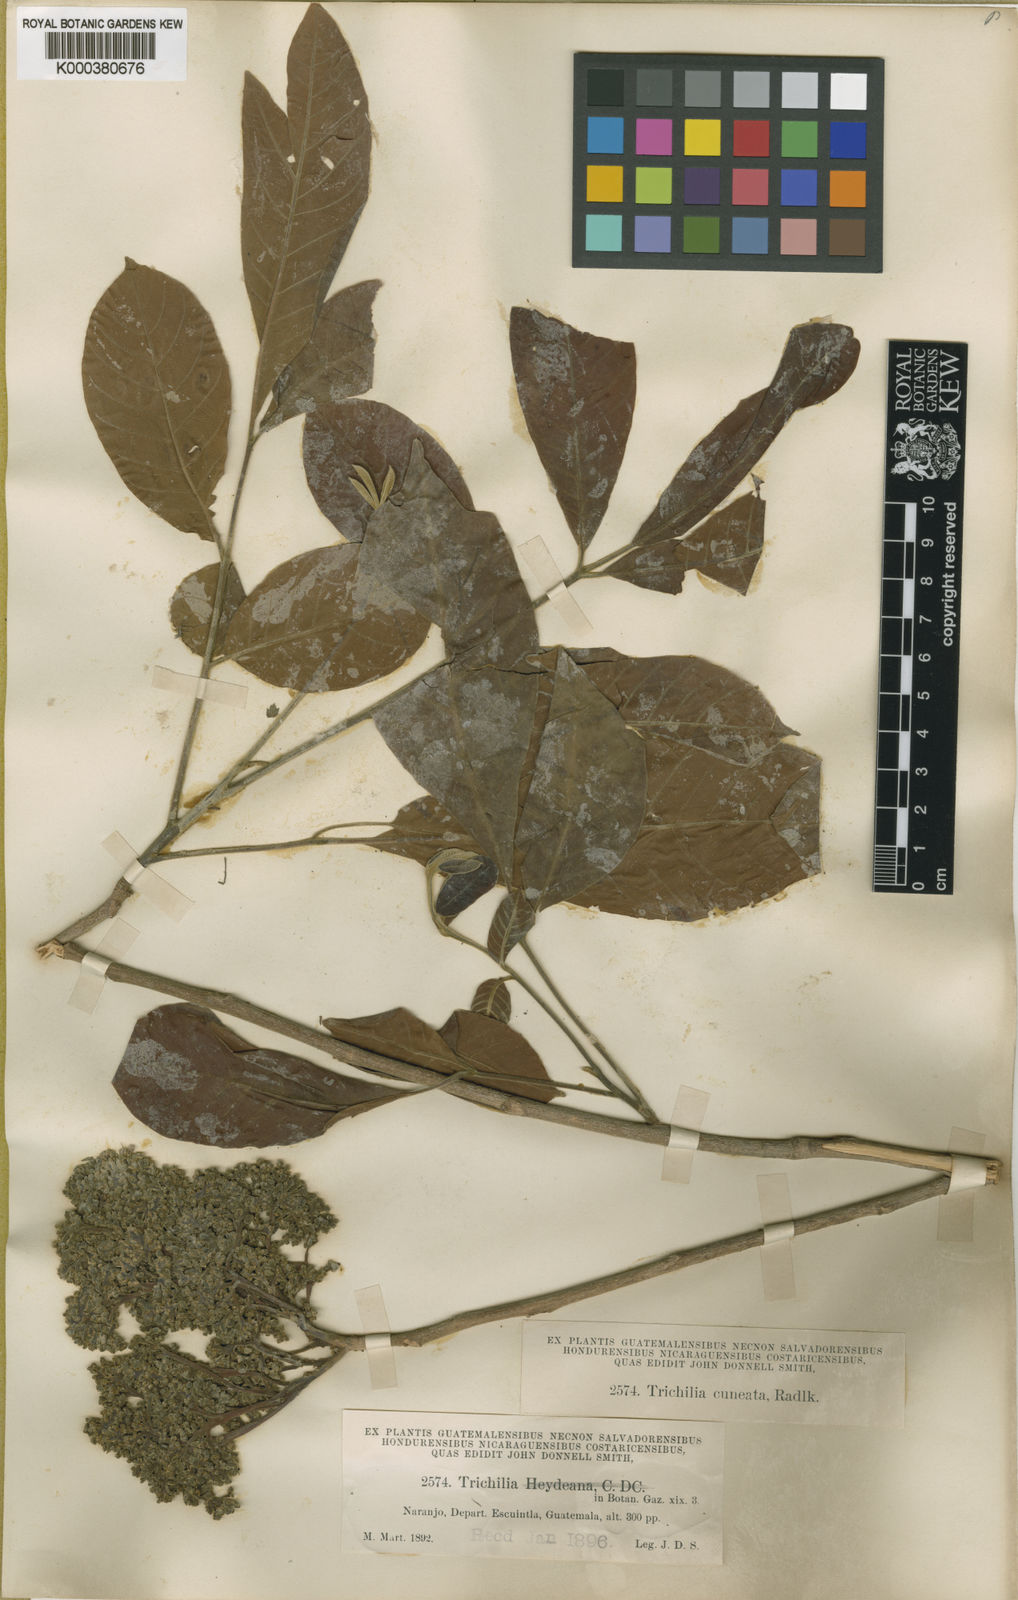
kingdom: Plantae
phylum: Tracheophyta
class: Magnoliopsida
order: Sapindales
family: Meliaceae
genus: Trichilia
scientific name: Trichilia martiana
